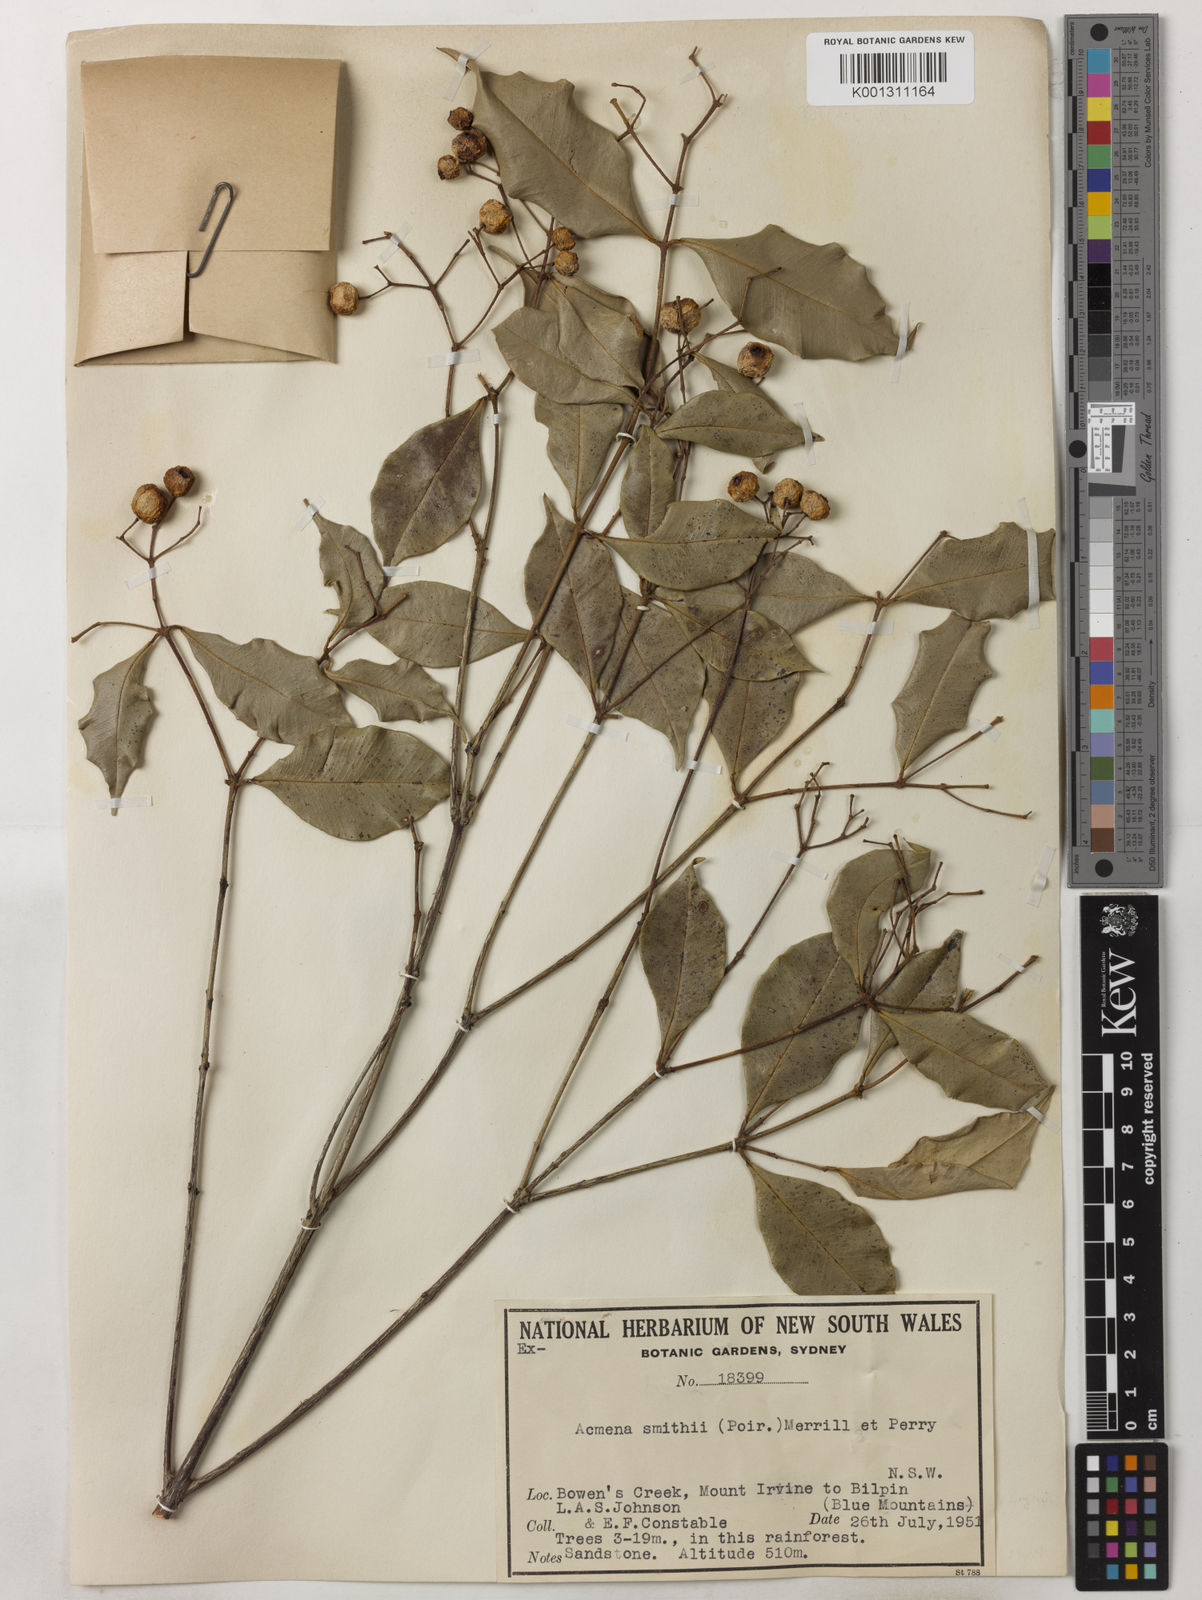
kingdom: Plantae
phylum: Tracheophyta
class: Magnoliopsida
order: Myrtales
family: Myrtaceae
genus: Syzygium
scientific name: Syzygium smithii
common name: Lilly-pilly
